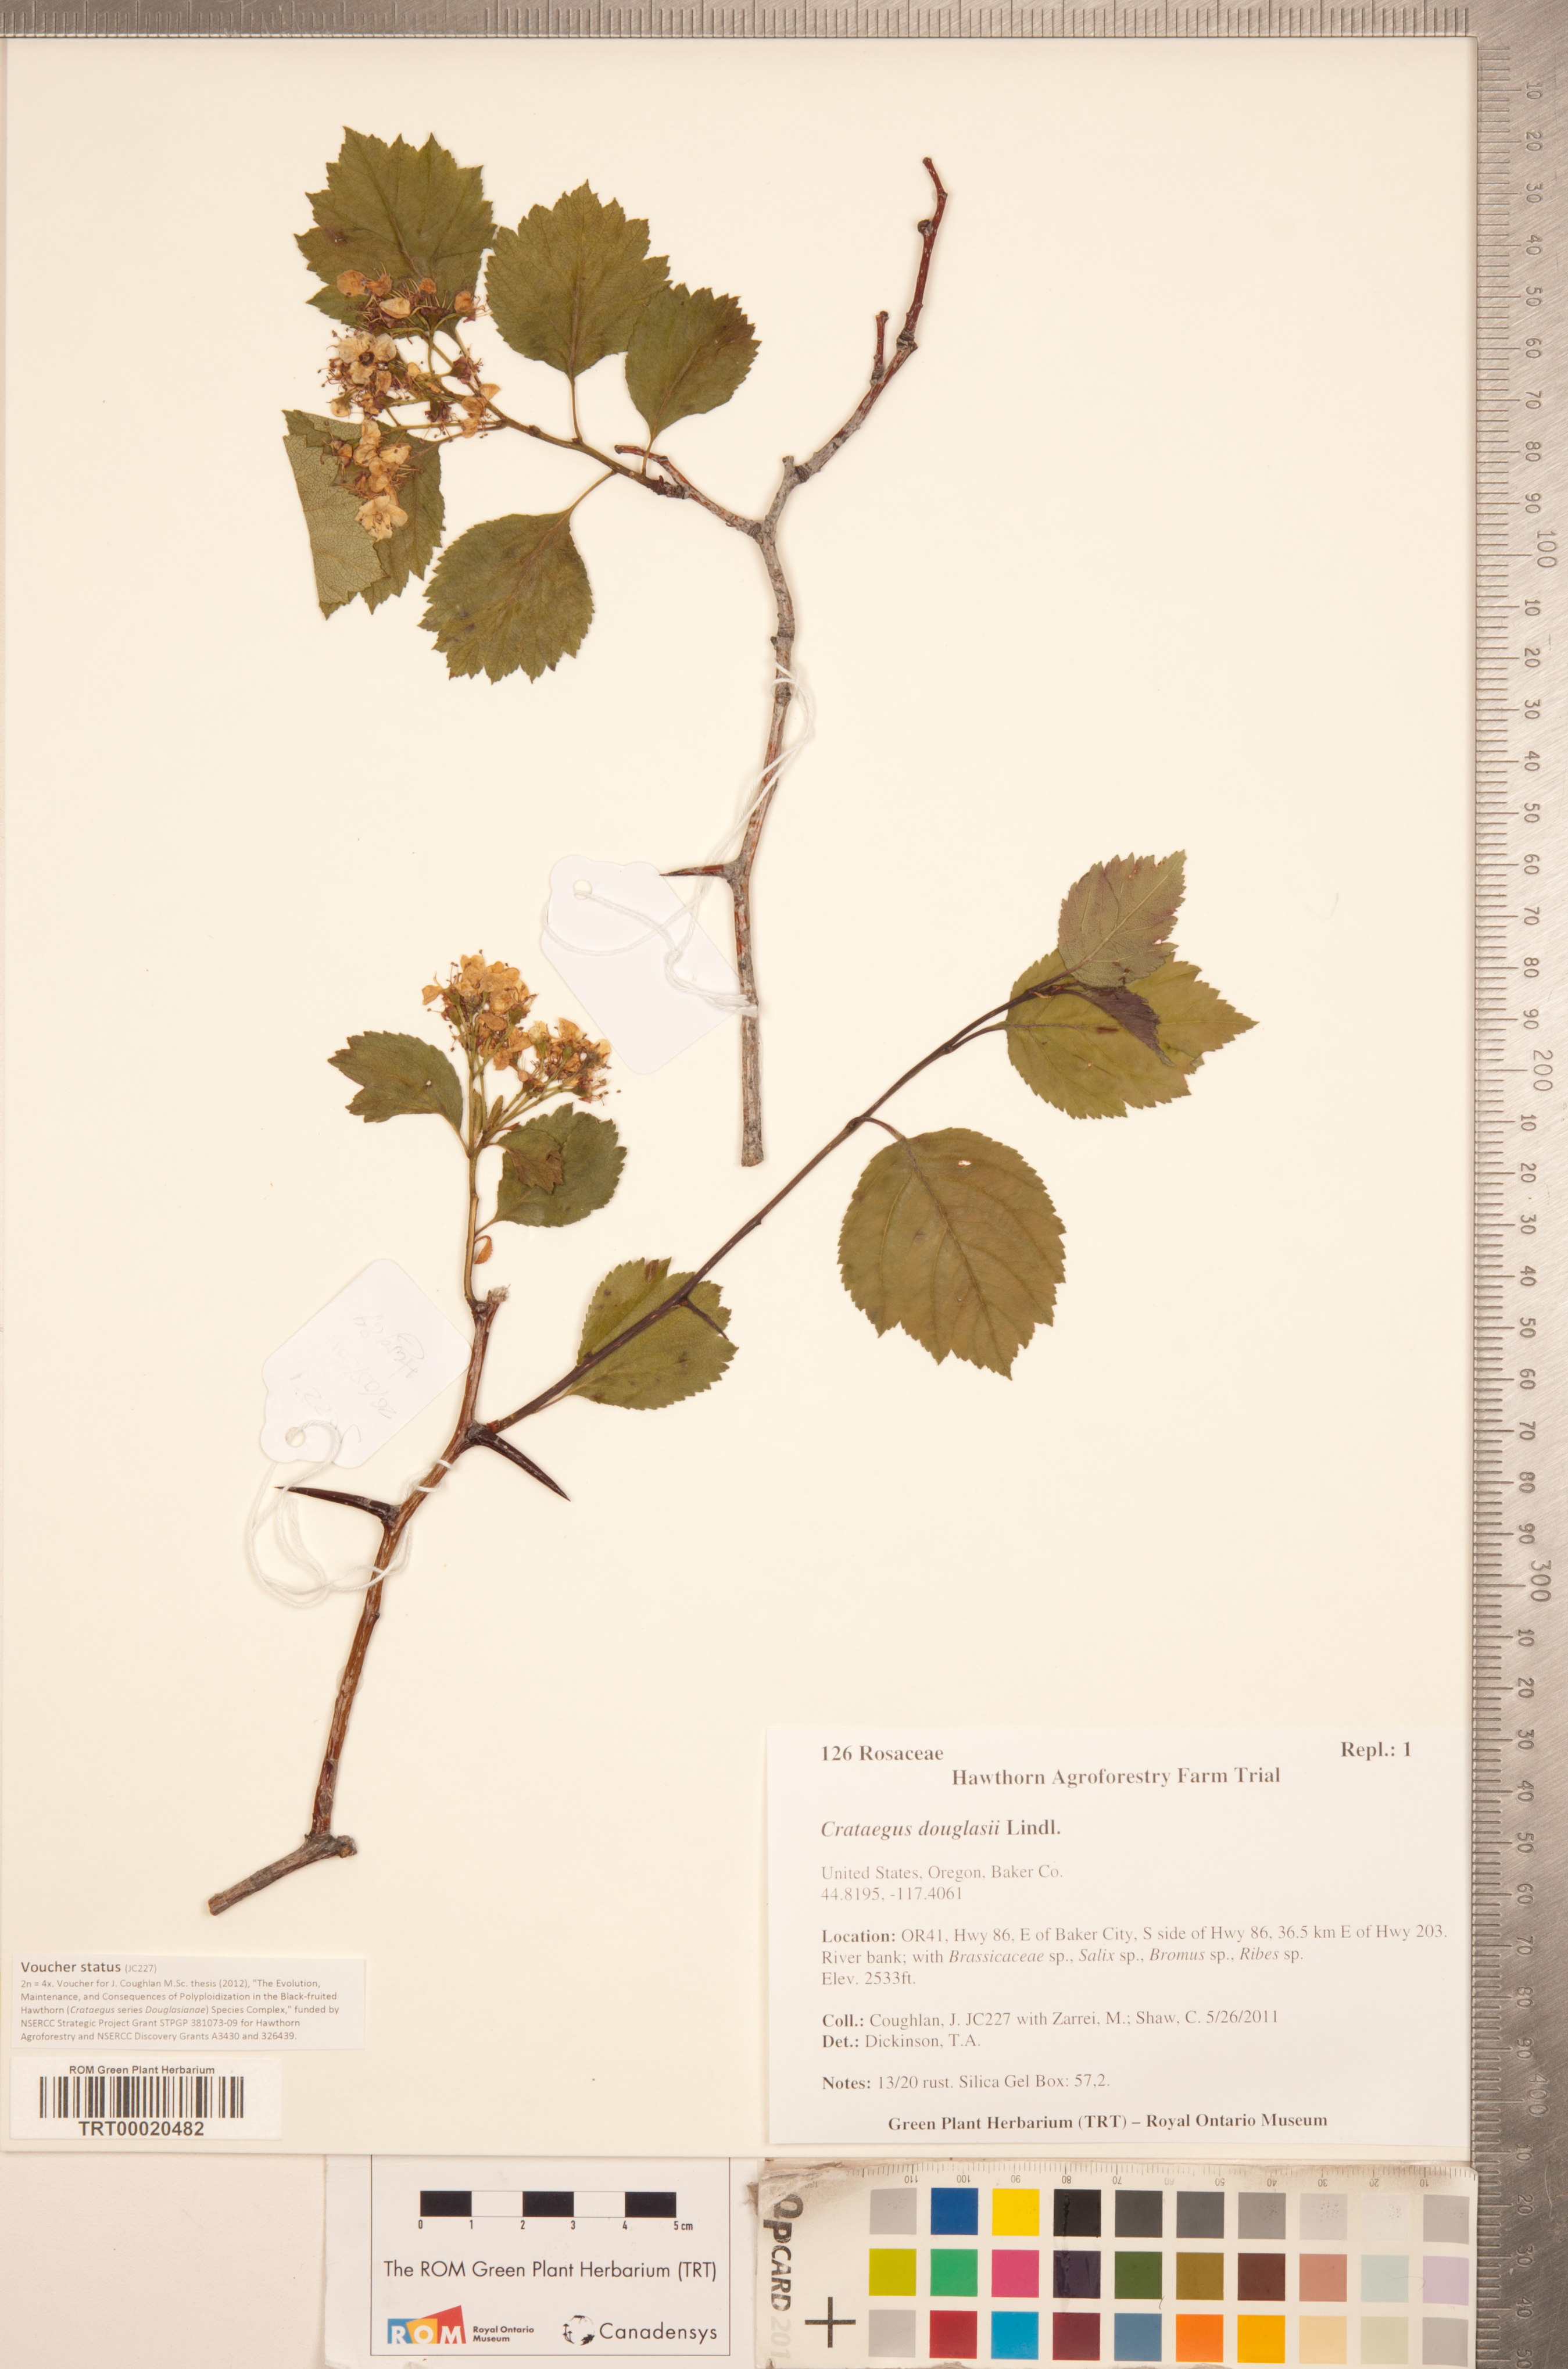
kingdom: Plantae
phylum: Tracheophyta
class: Magnoliopsida
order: Rosales
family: Rosaceae
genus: Crataegus
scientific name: Crataegus douglasii
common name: Black hawthorn
